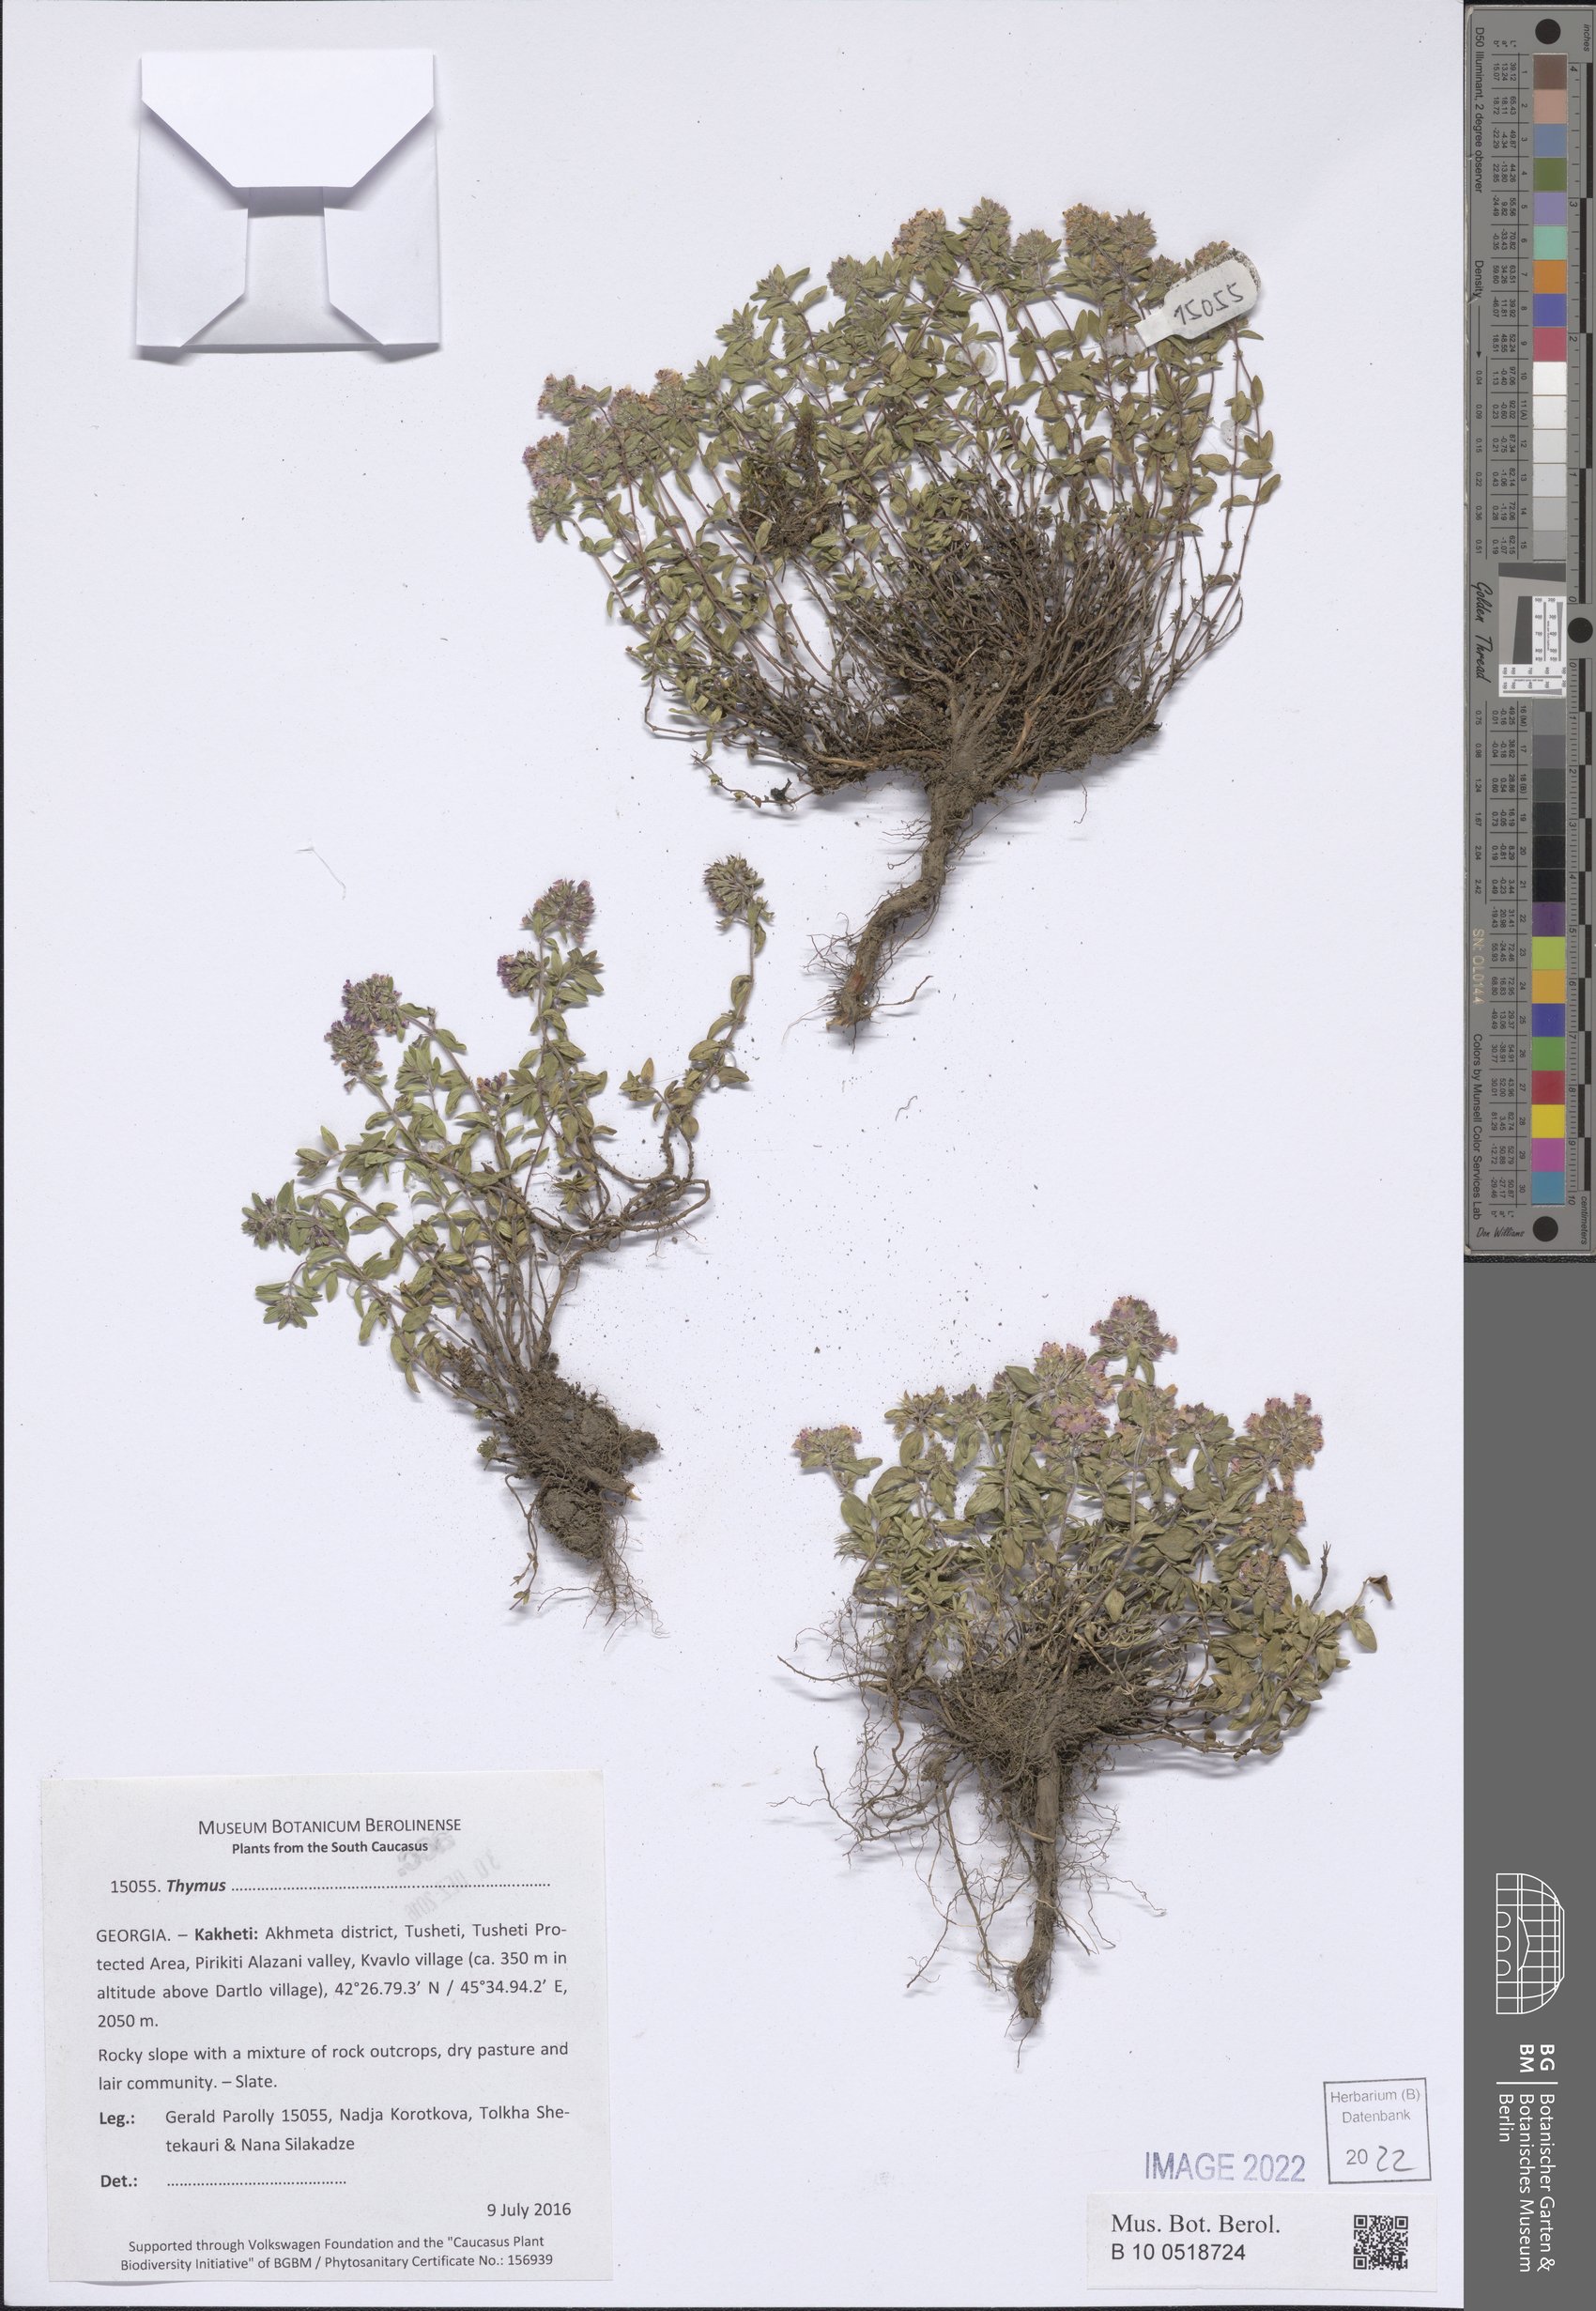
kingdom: Plantae
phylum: Tracheophyta
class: Magnoliopsida
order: Lamiales
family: Lamiaceae
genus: Thymus
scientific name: Thymus
